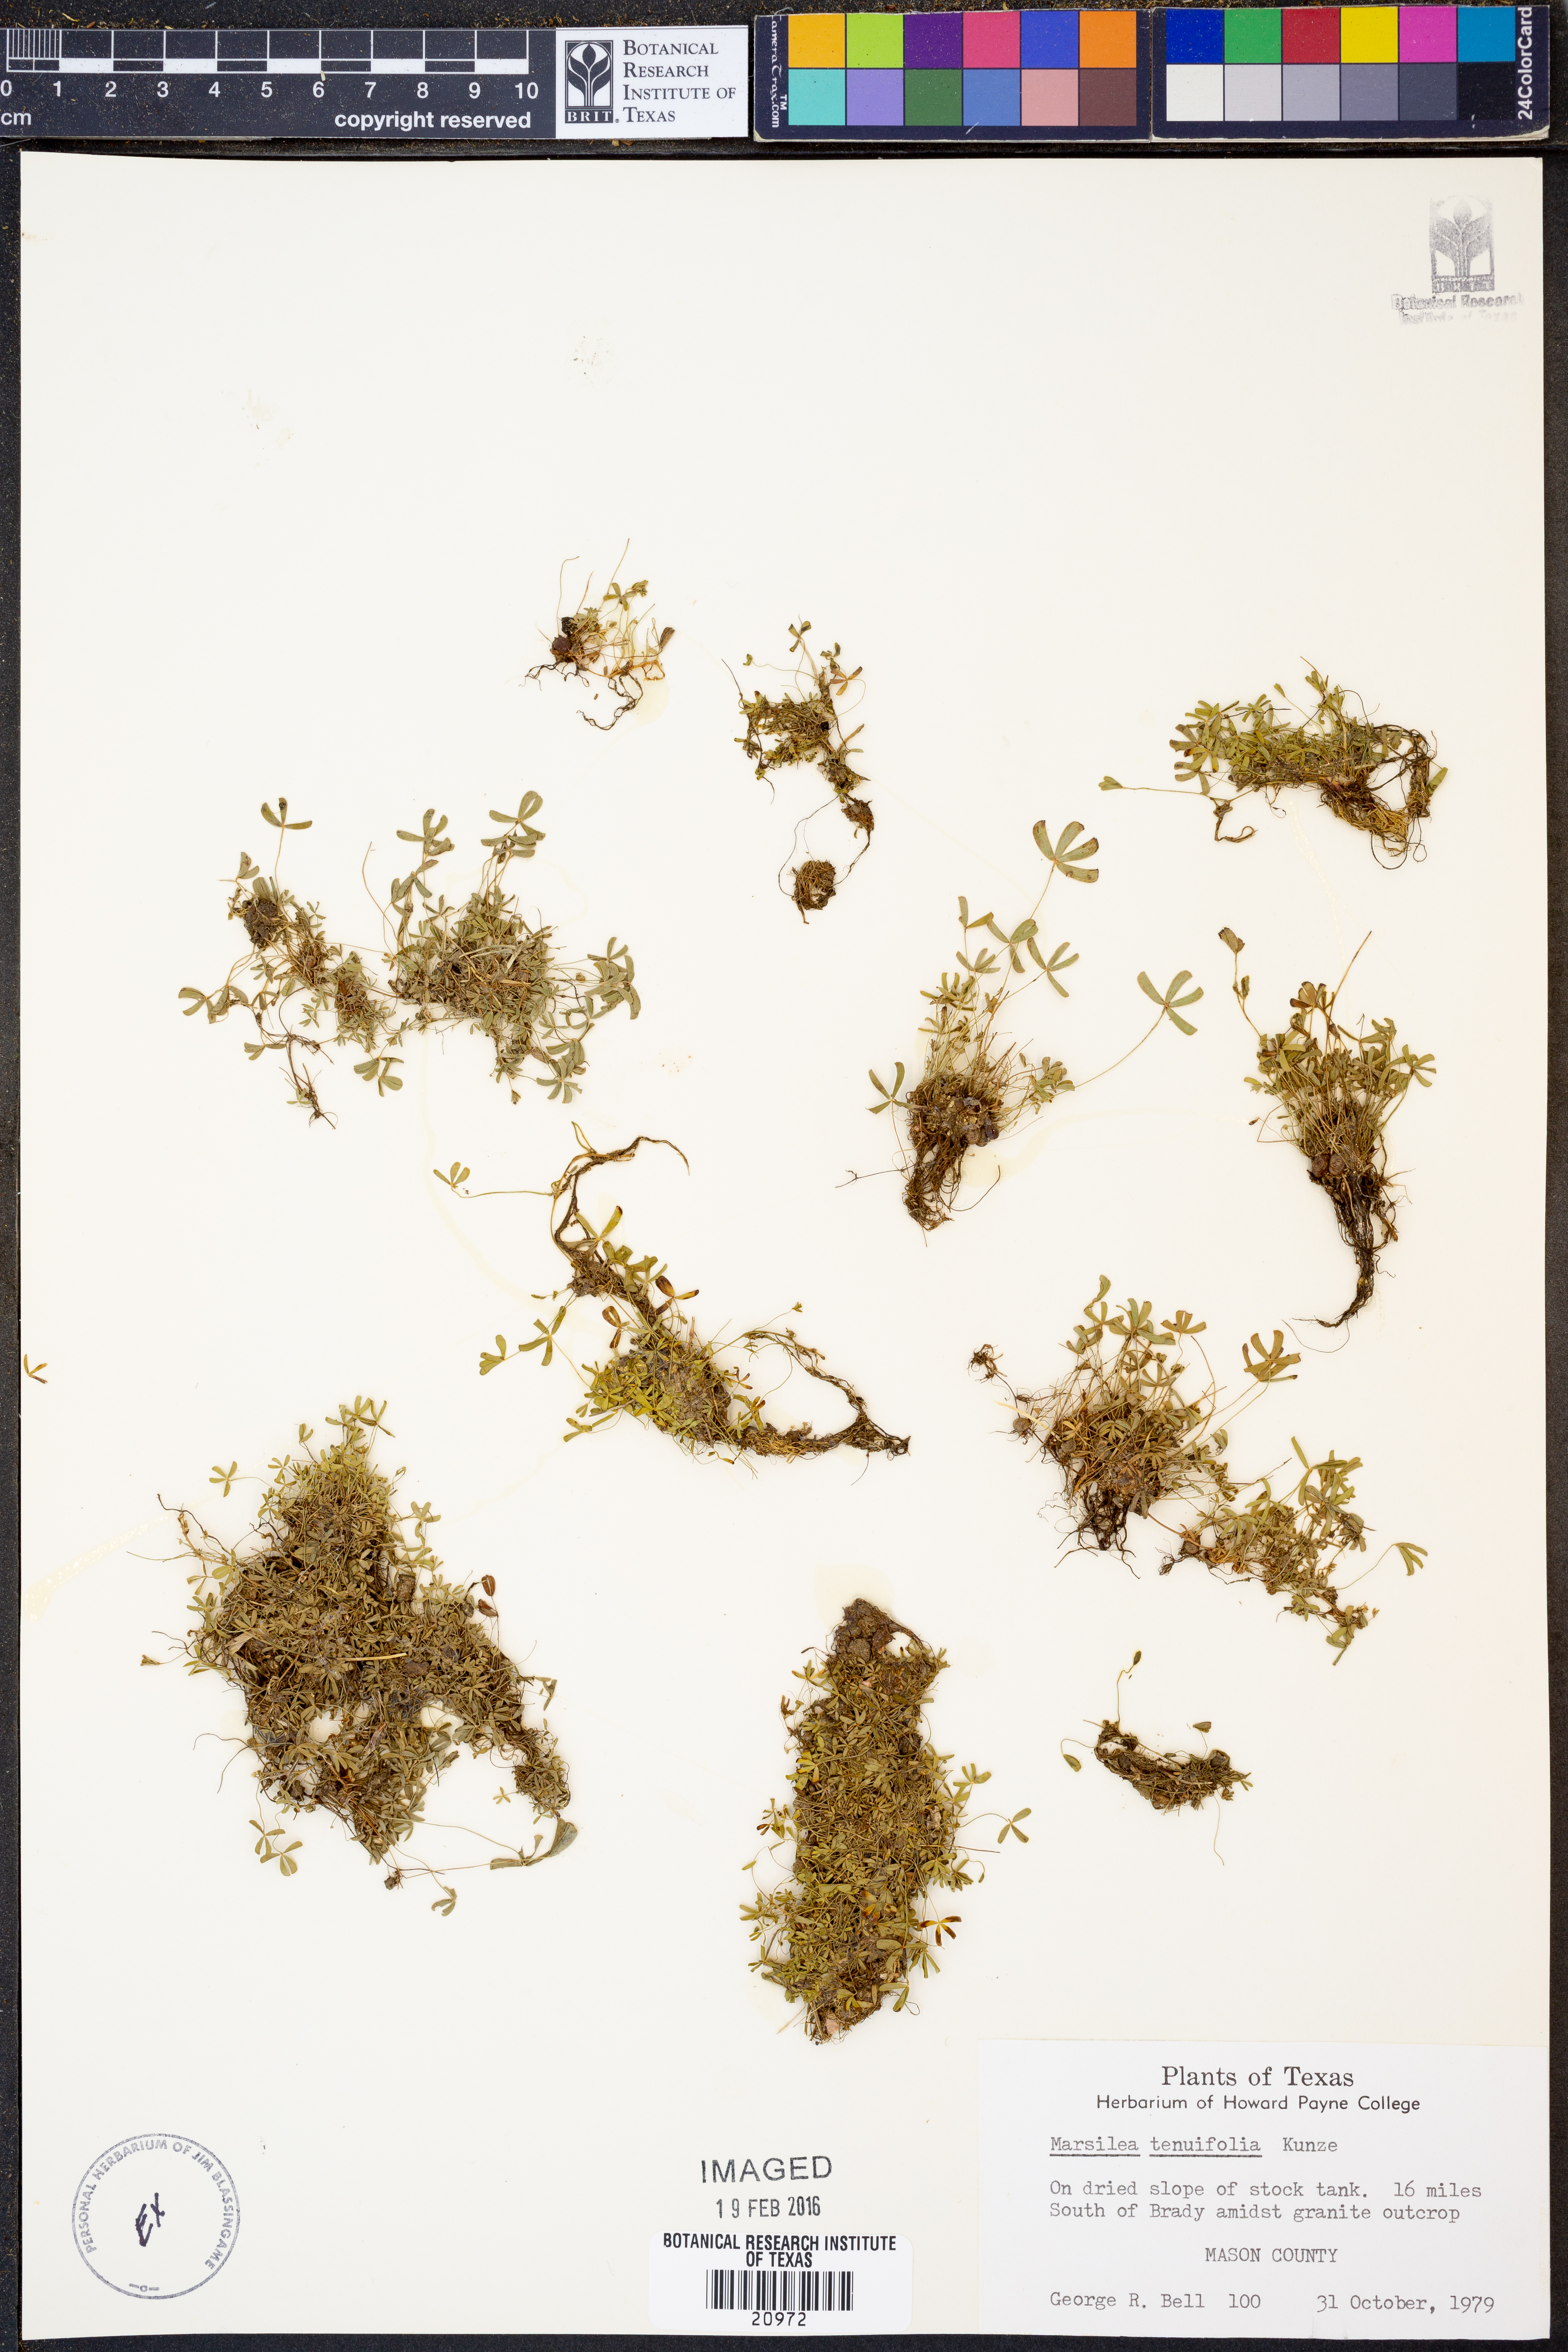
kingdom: Plantae
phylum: Tracheophyta
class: Polypodiopsida
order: Salviniales
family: Marsileaceae
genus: Marsilea
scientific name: Marsilea vestita
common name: Hooked-pepperwort
